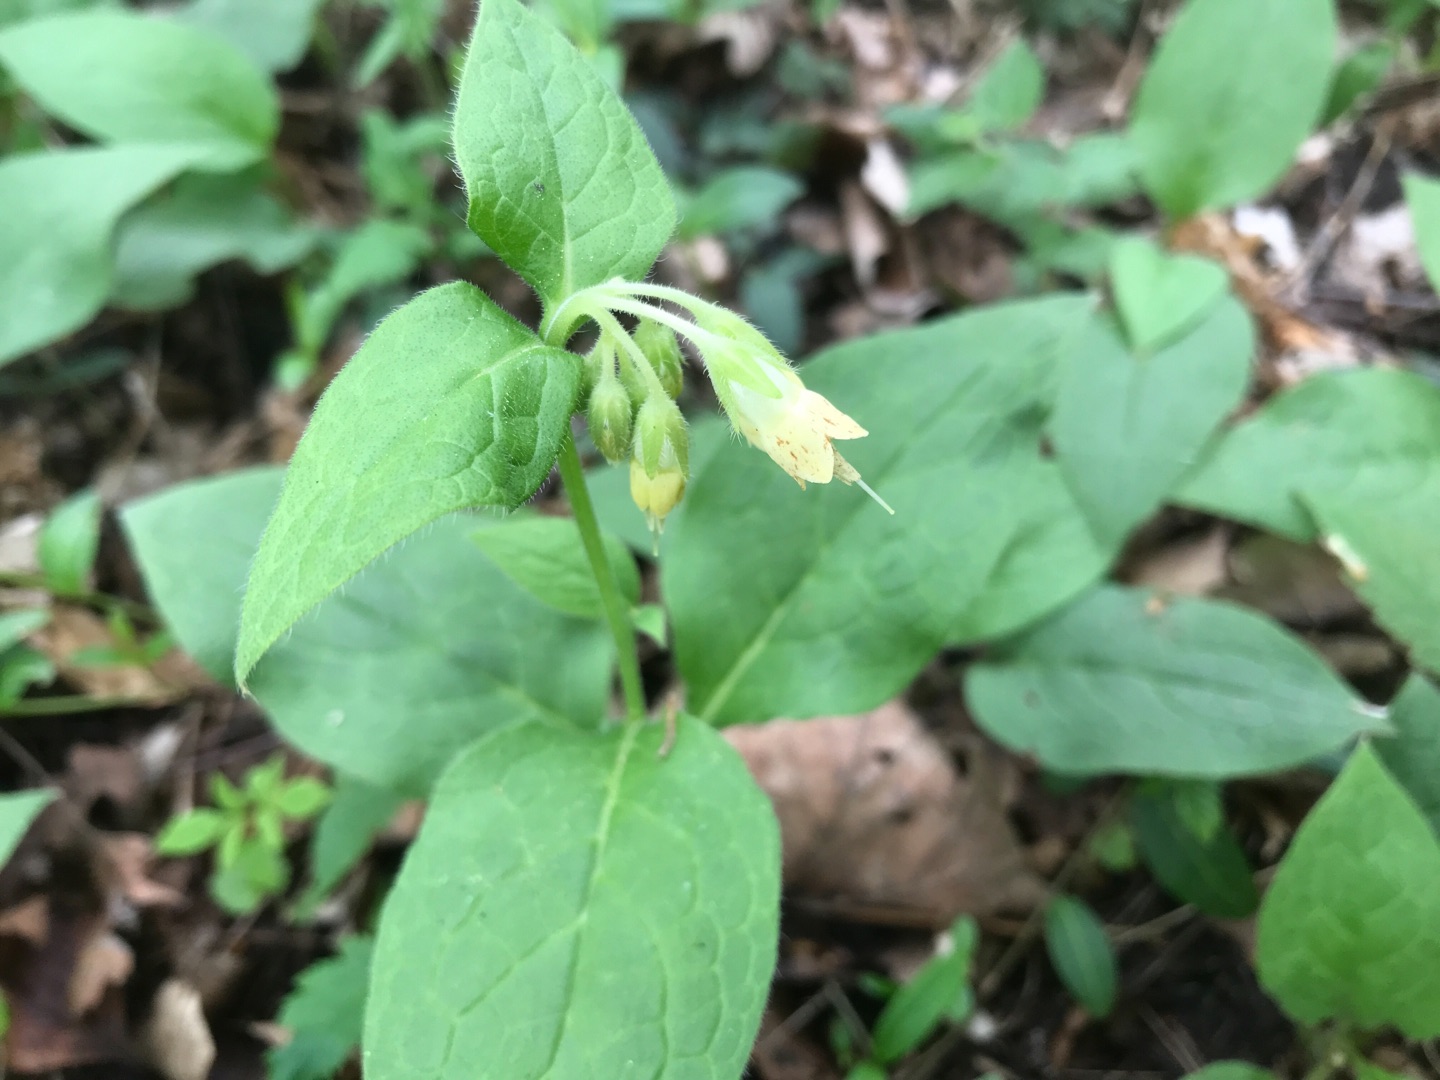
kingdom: Plantae
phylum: Tracheophyta
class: Magnoliopsida
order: Boraginales
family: Boraginaceae
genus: Symphytum
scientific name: Symphytum bulbosum
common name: Bleggul kulsukker
